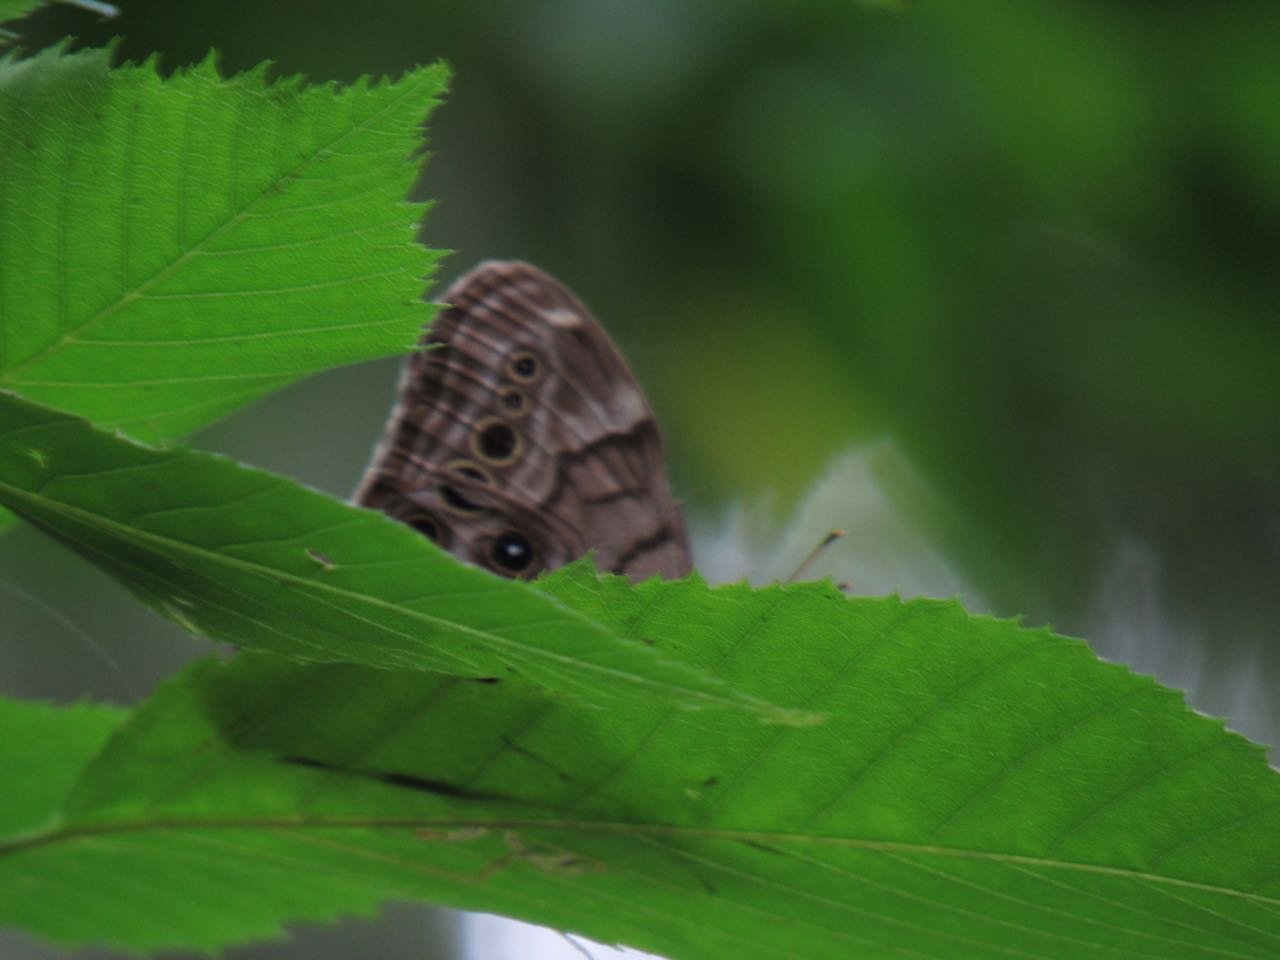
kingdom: Animalia
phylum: Arthropoda
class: Insecta
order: Lepidoptera
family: Nymphalidae
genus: Lethe
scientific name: Lethe anthedon
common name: Northern Pearly-Eye
